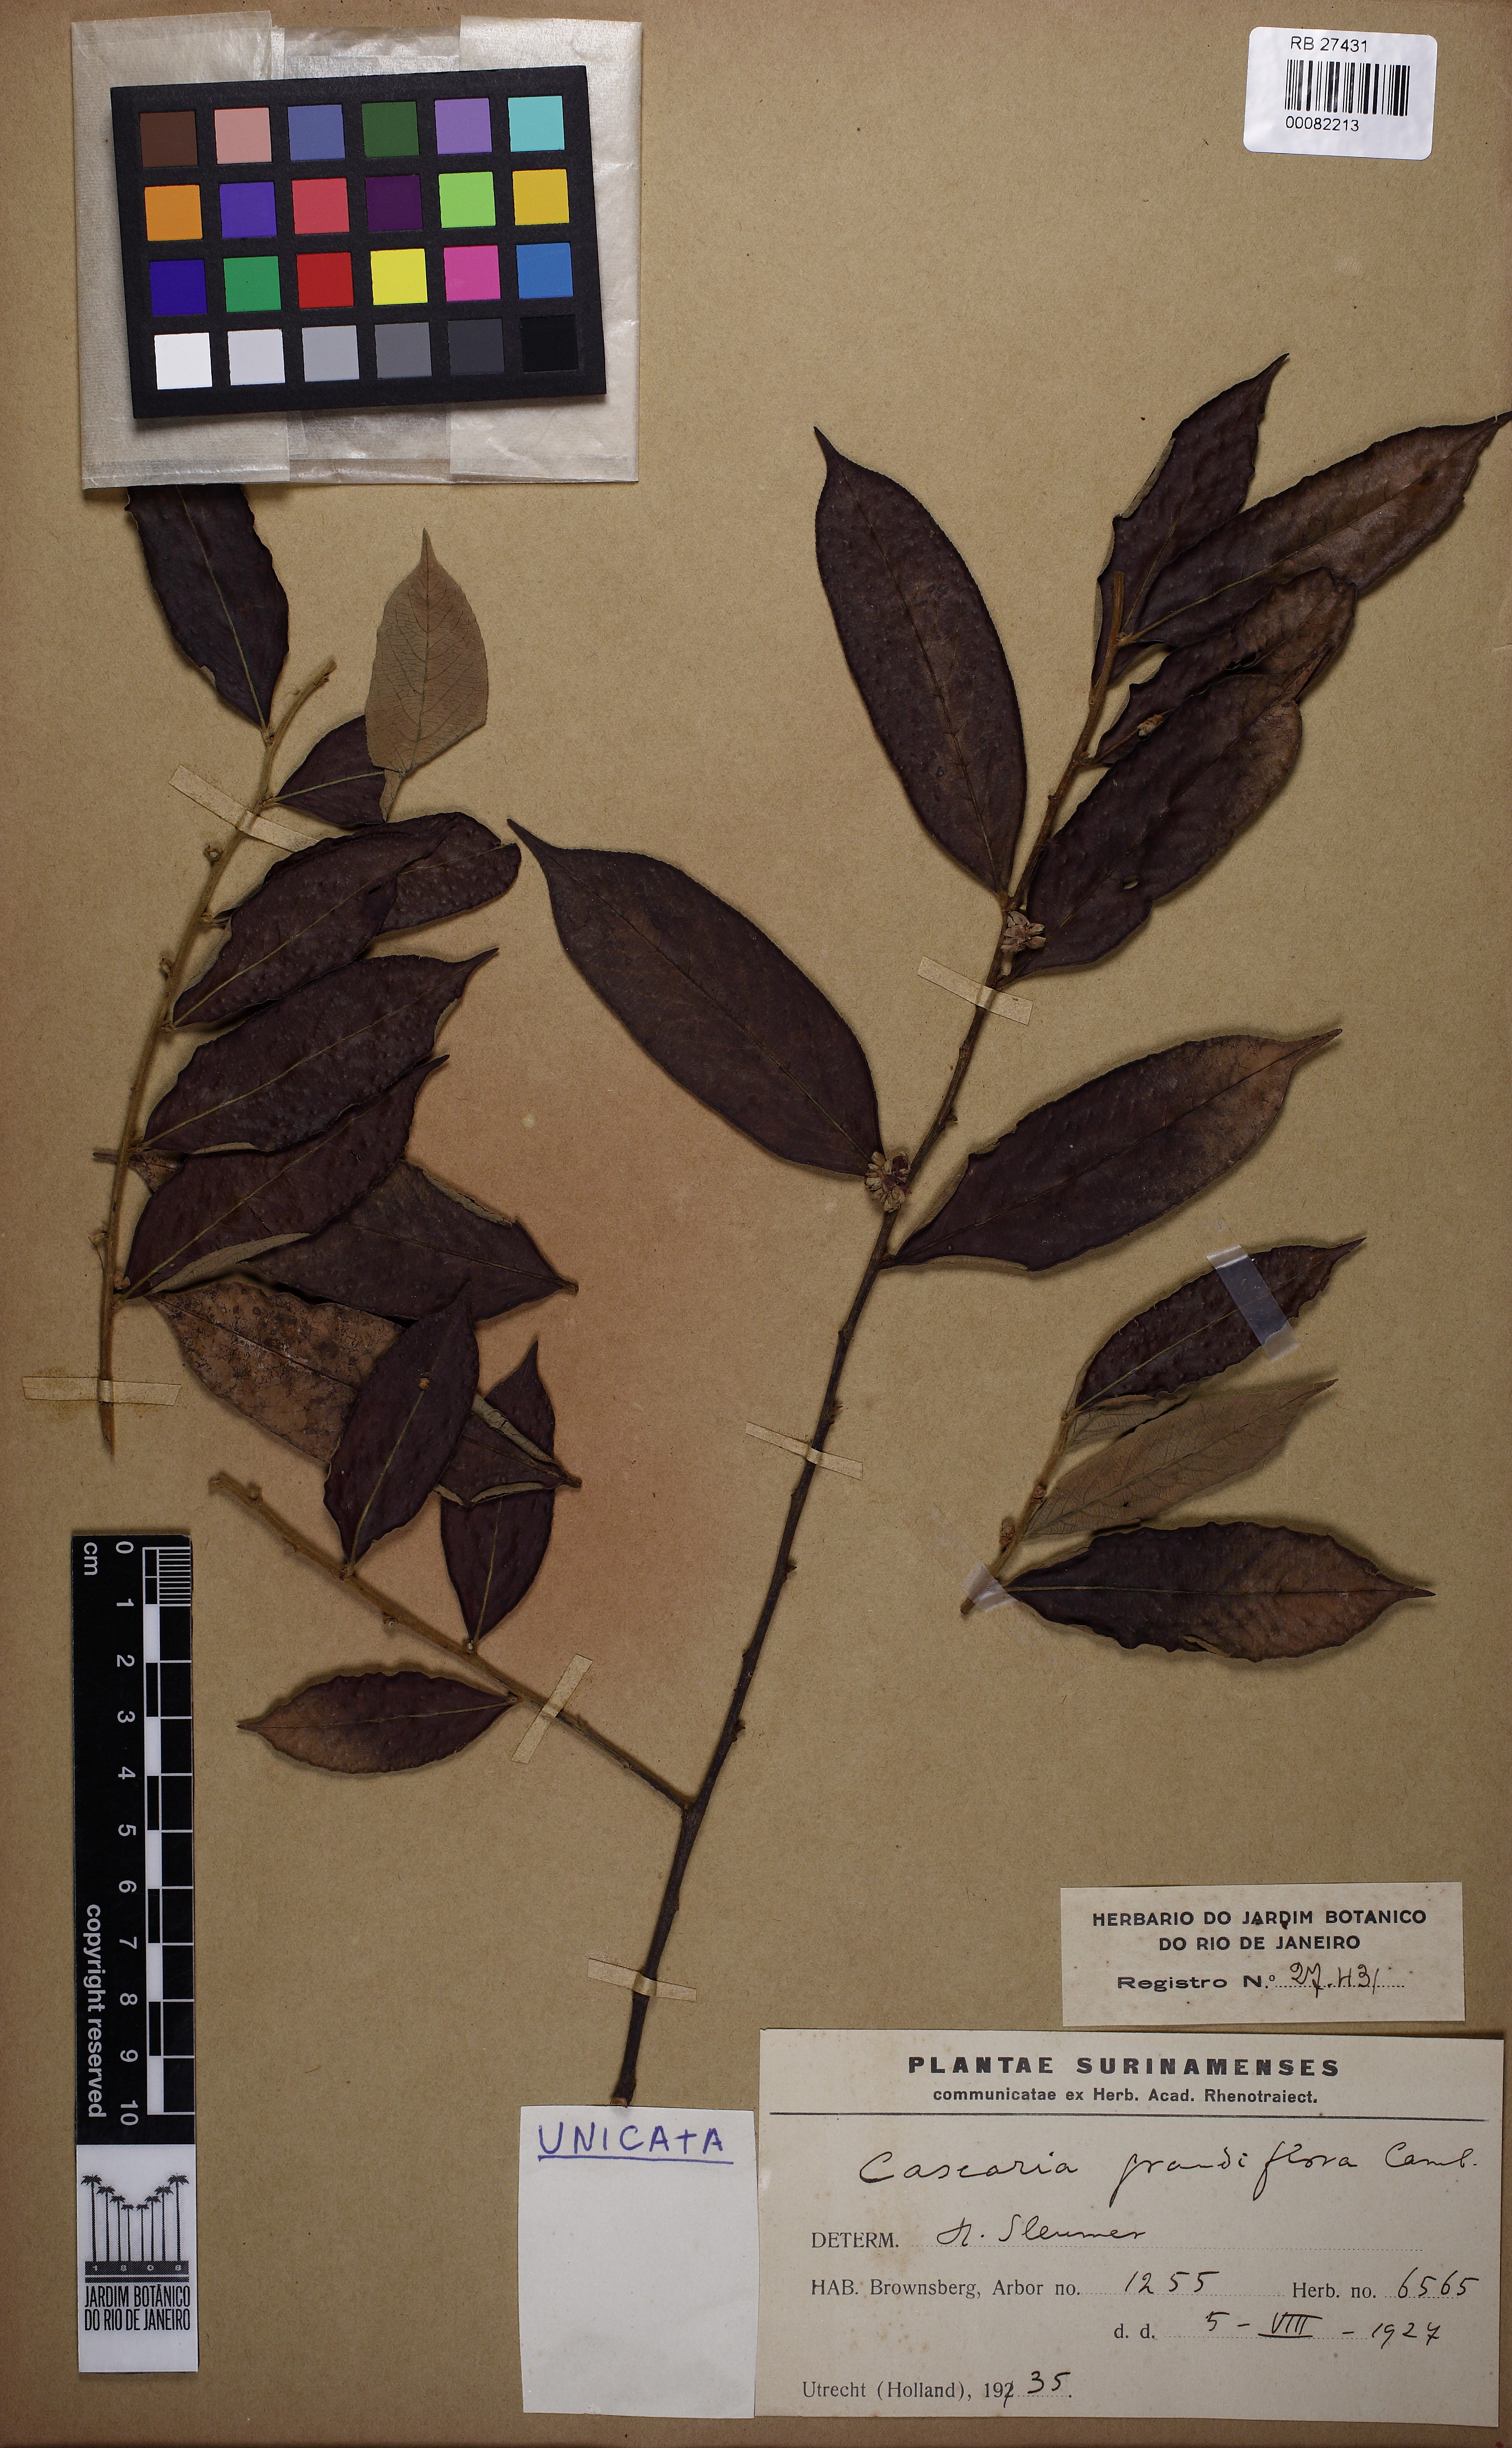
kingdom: Plantae
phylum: Tracheophyta
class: Magnoliopsida
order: Malpighiales
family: Salicaceae
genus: Casearia
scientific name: Casearia grandiflora
